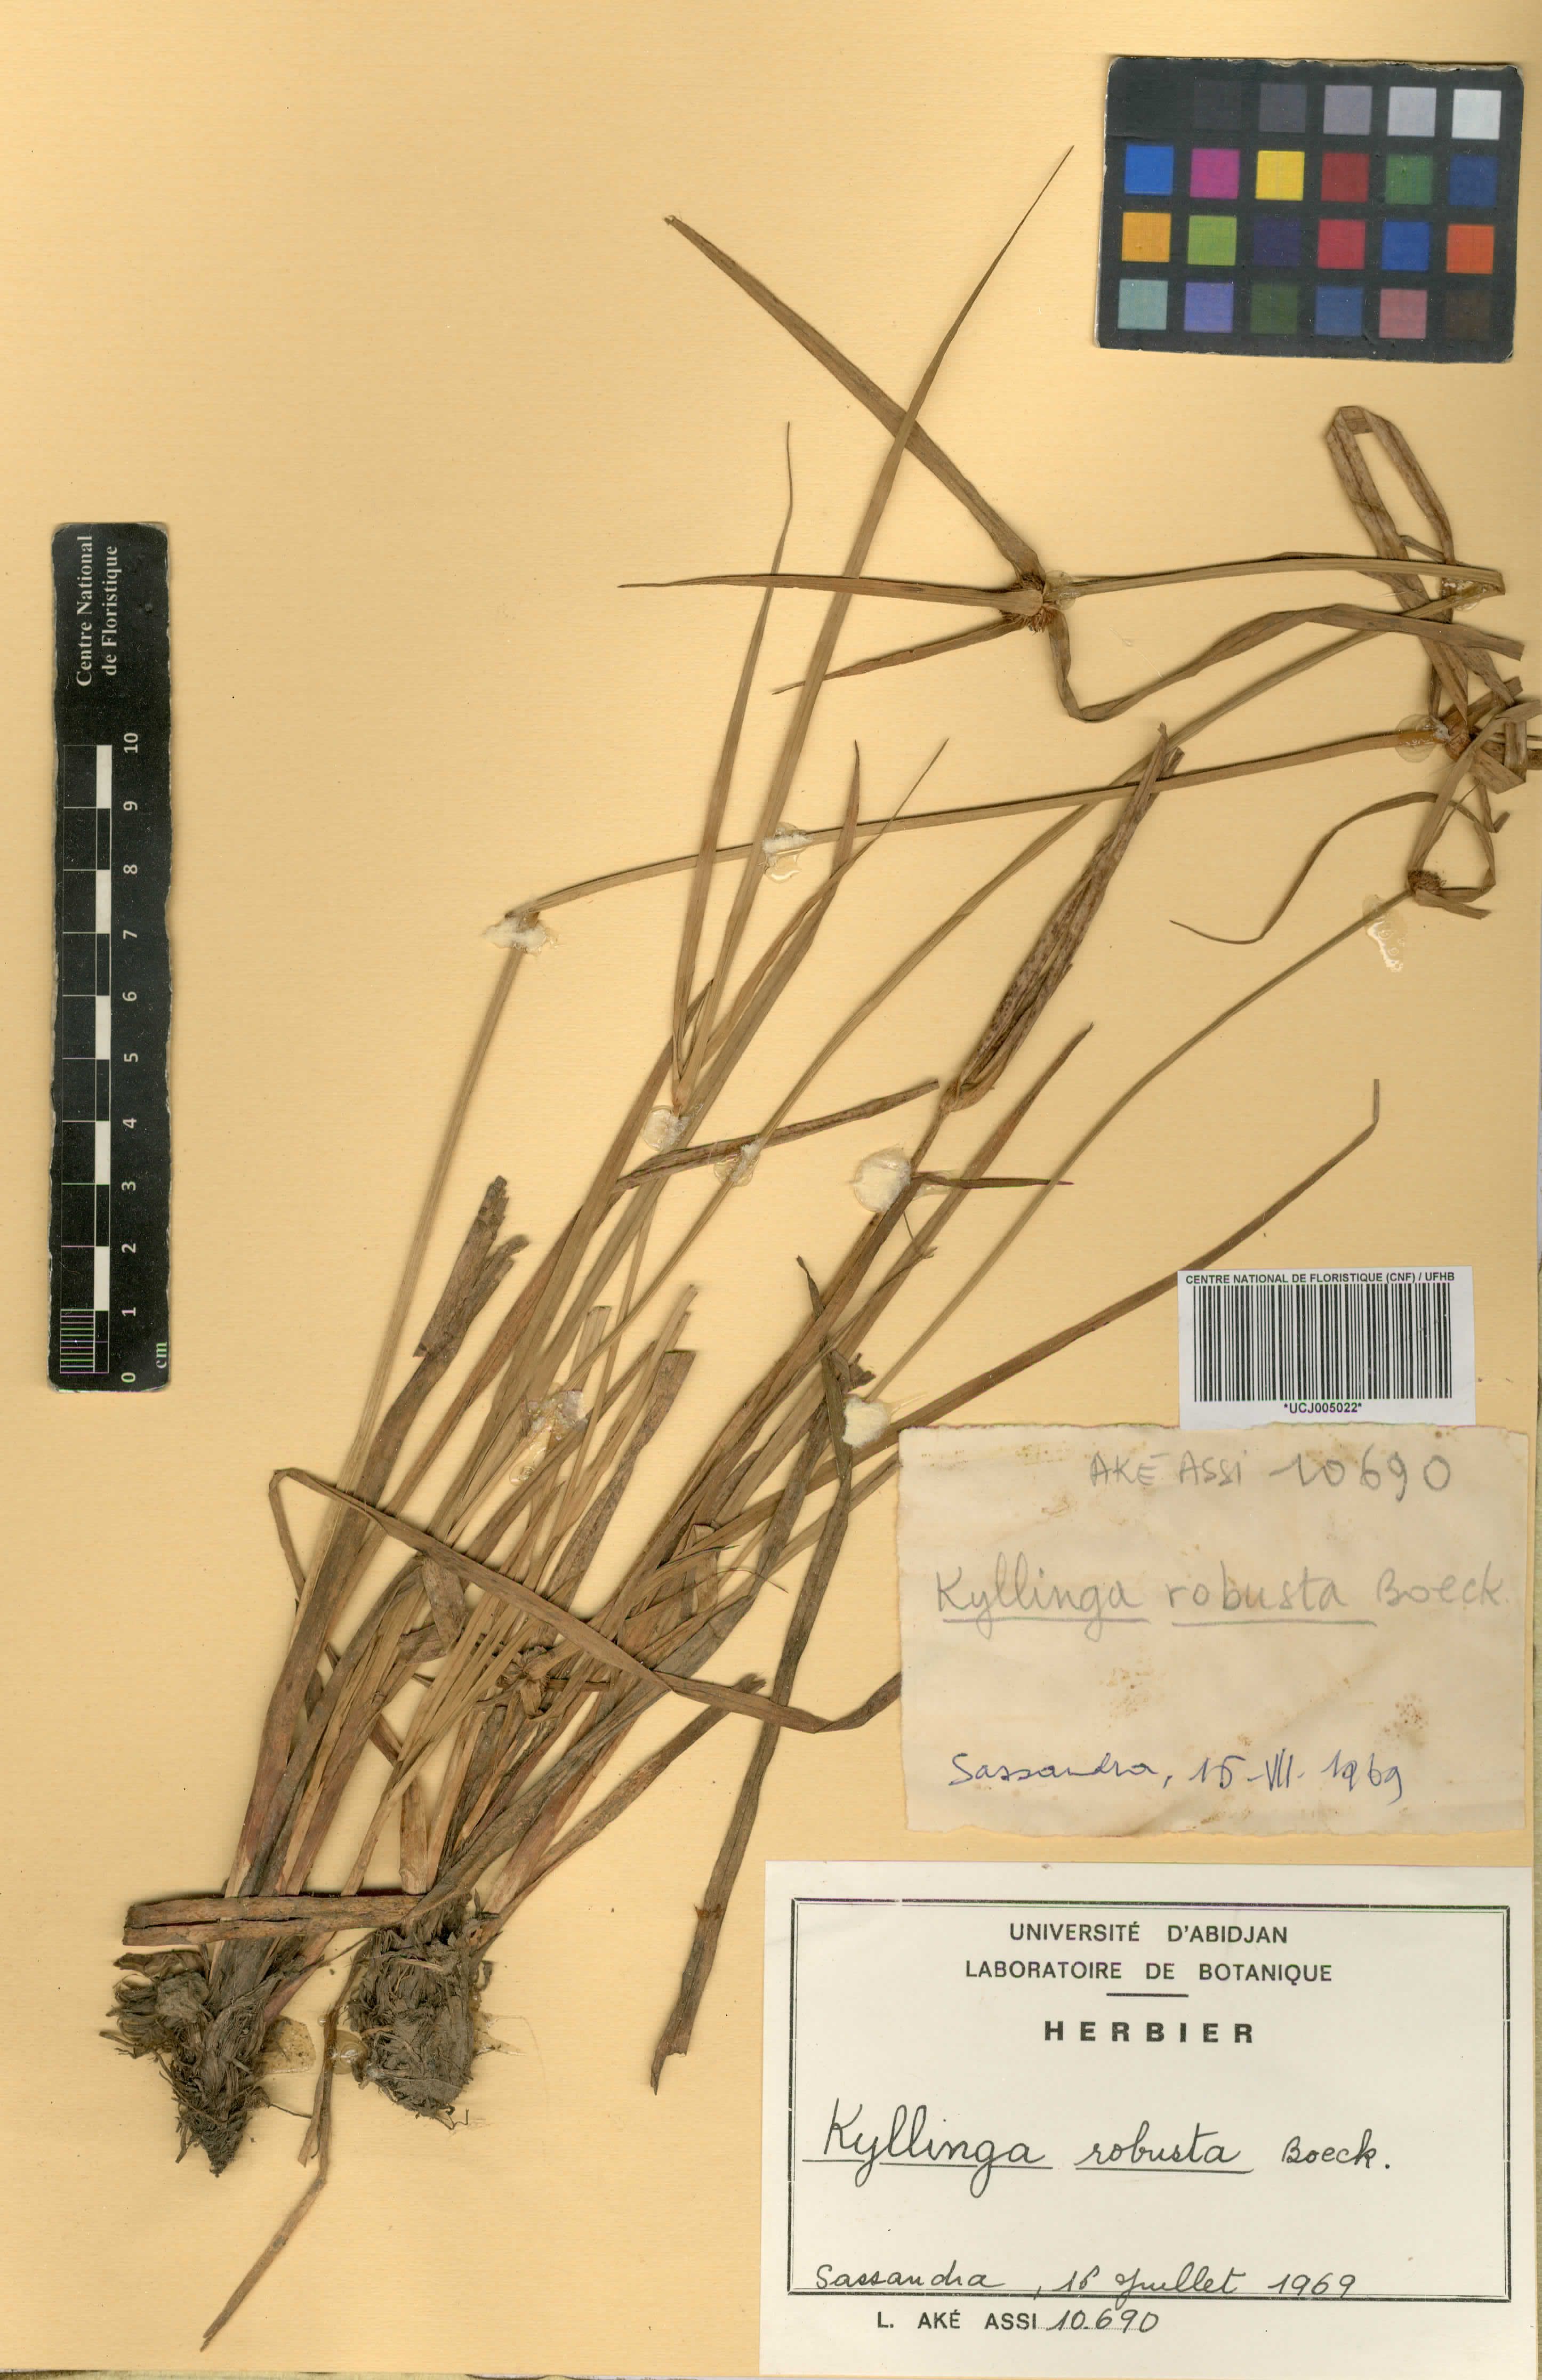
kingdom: Plantae
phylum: Tracheophyta
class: Liliopsida
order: Poales
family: Cyperaceae
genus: Cyperus
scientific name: Cyperus afrorobustus
